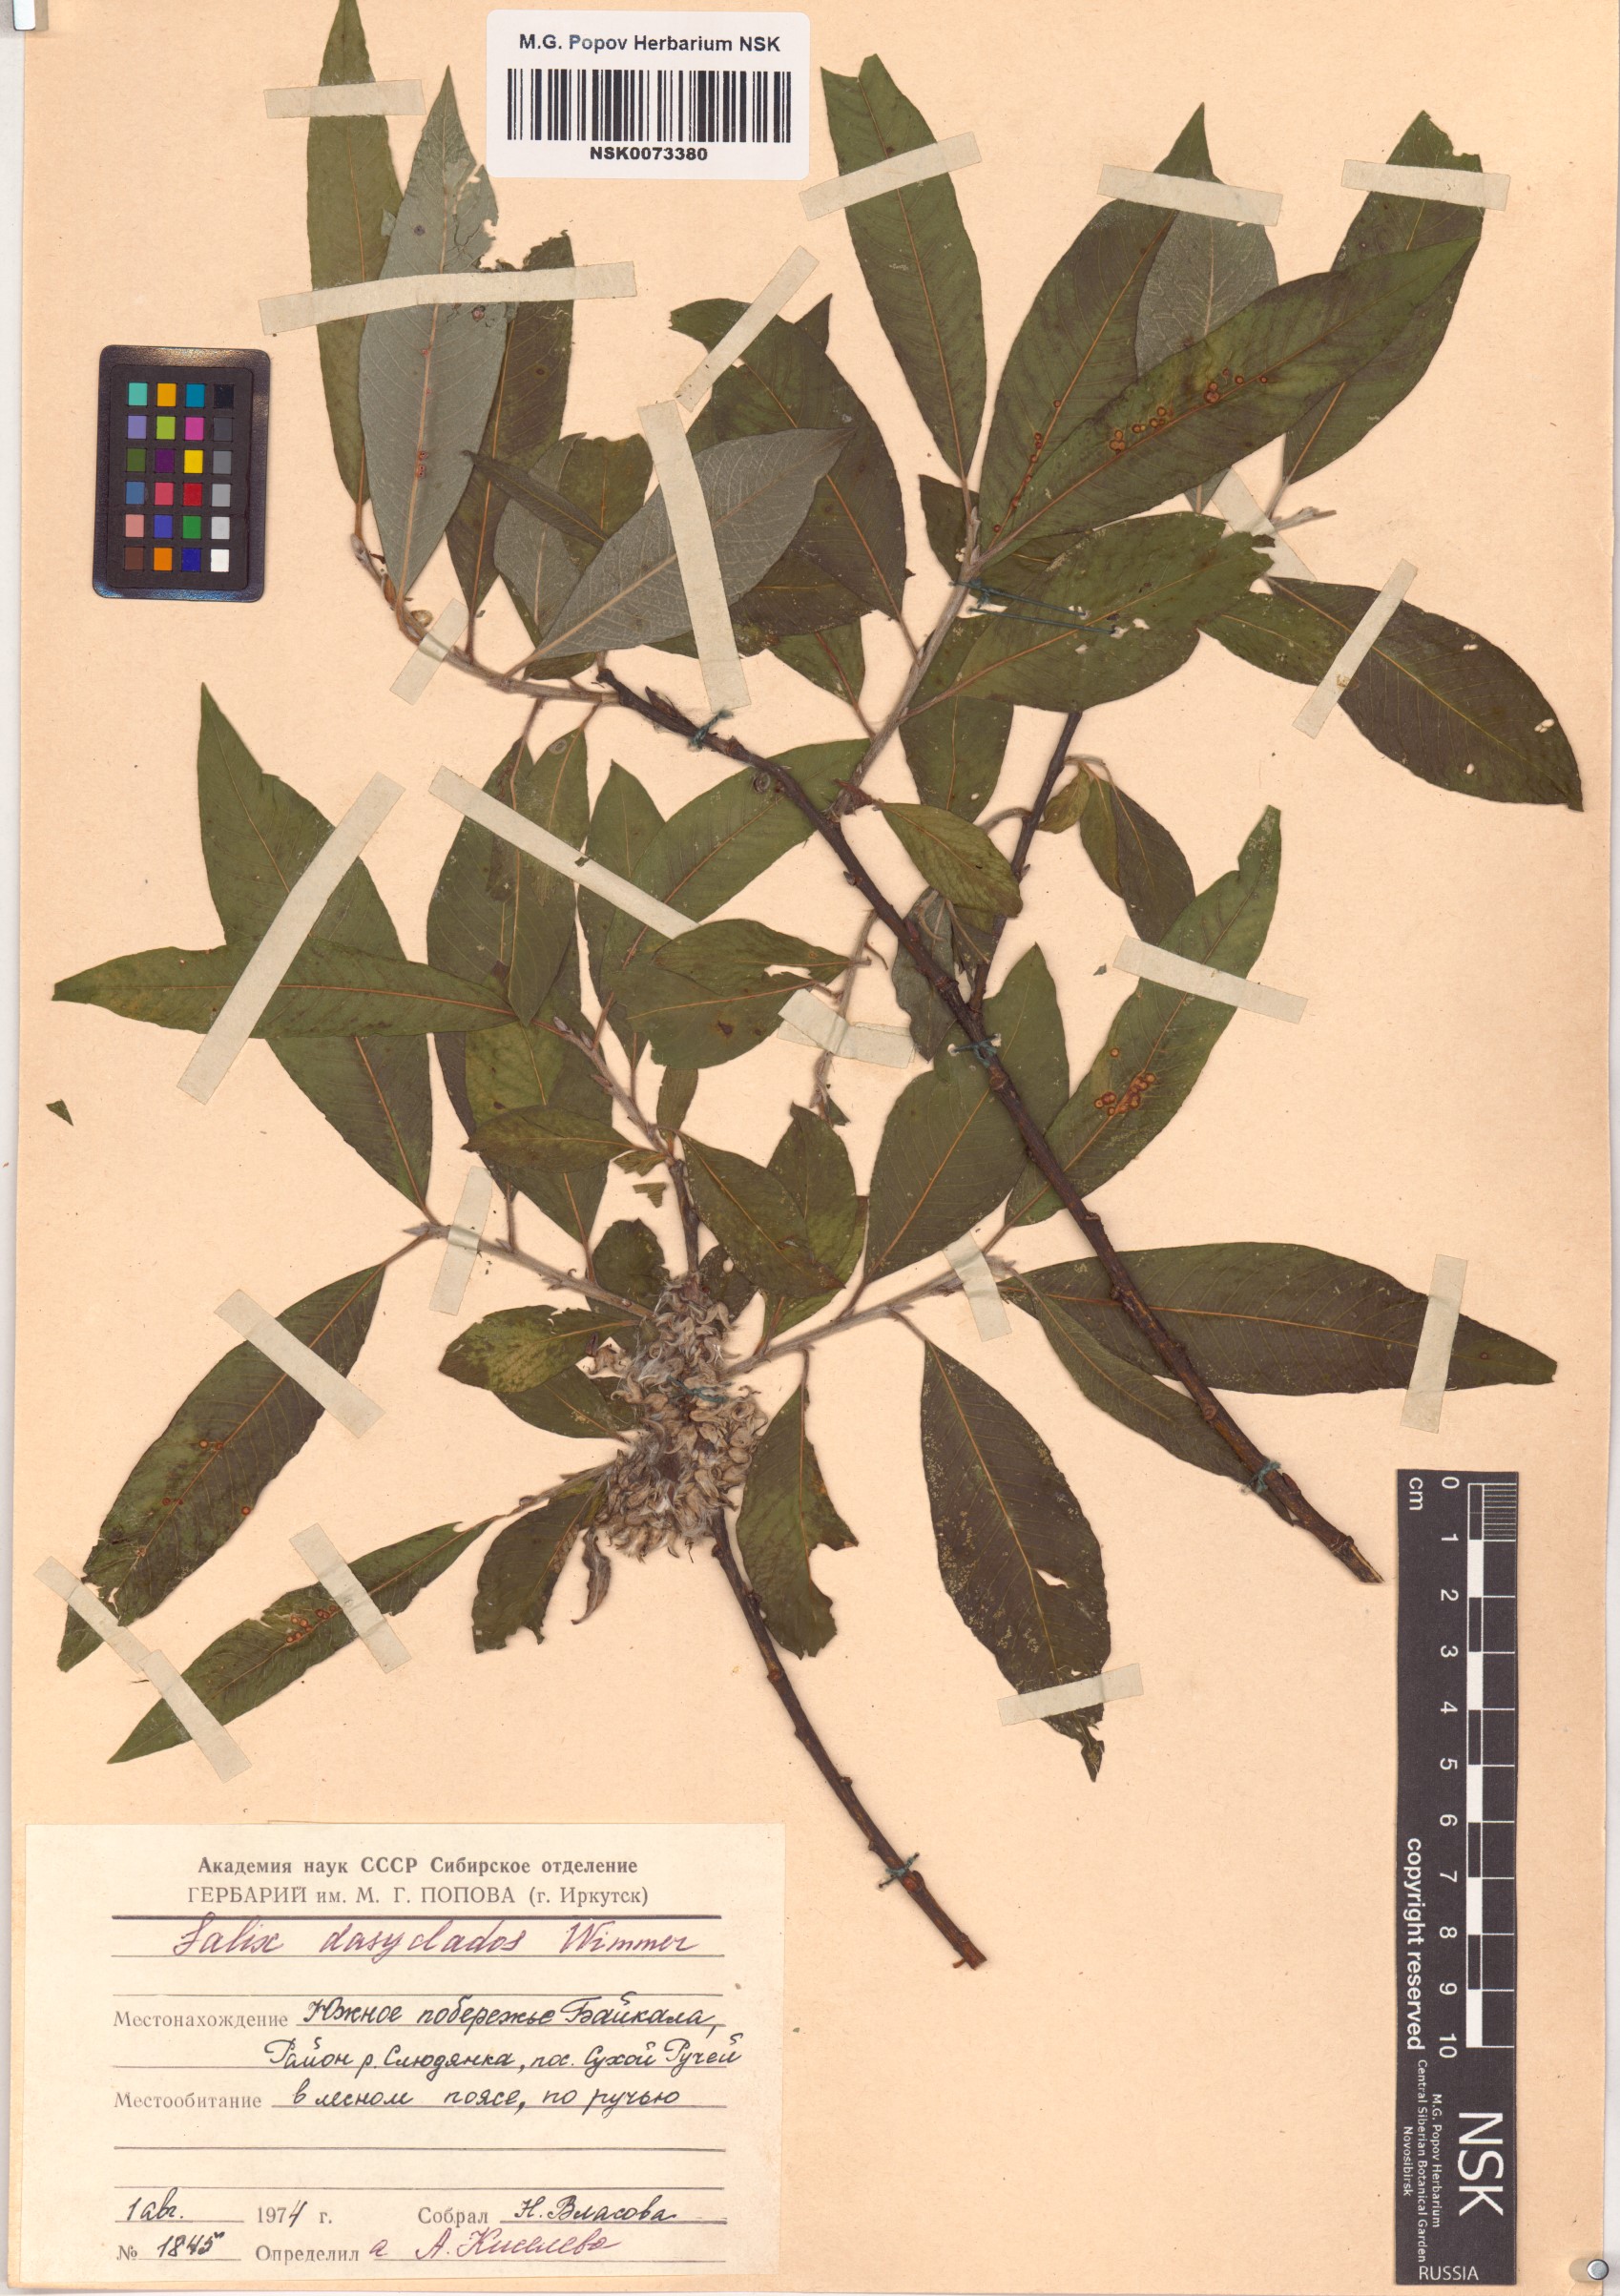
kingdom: Plantae
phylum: Tracheophyta
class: Magnoliopsida
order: Malpighiales
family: Salicaceae
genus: Salix
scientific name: Salix gmelinii
